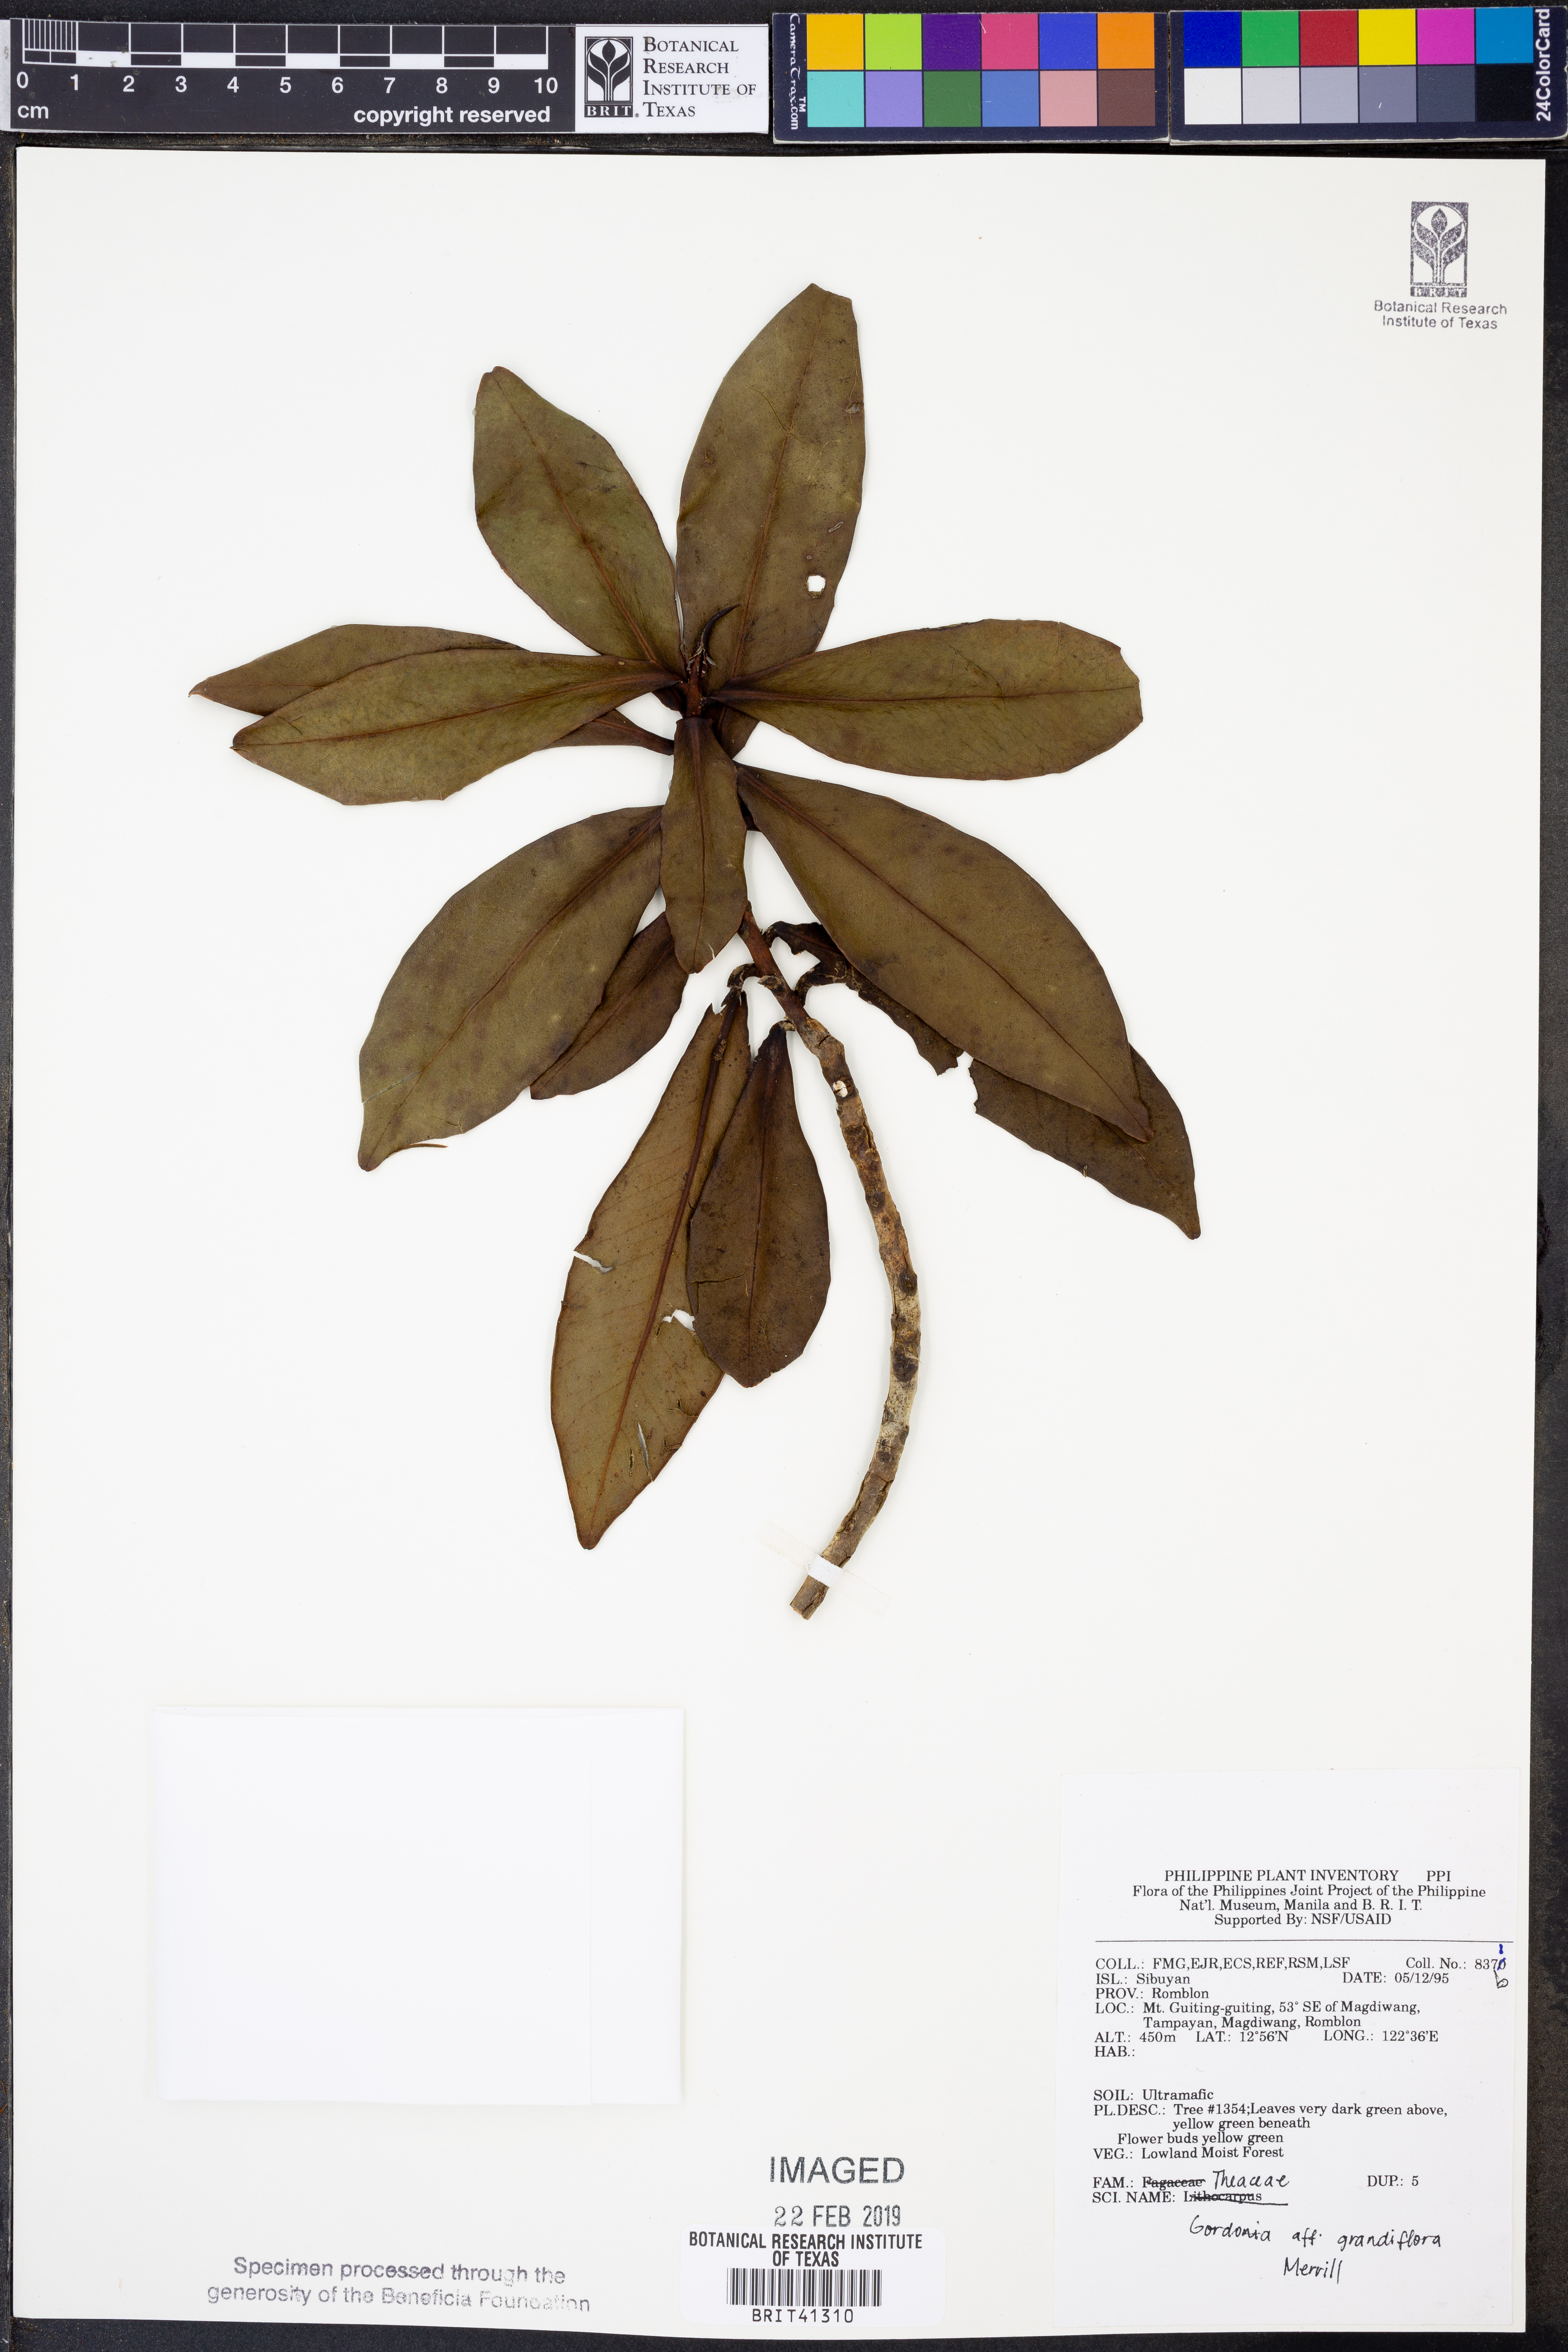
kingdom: Plantae
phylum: Tracheophyta
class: Magnoliopsida
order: Ericales
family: Theaceae
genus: Polyspora
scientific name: Polyspora grandiflora
